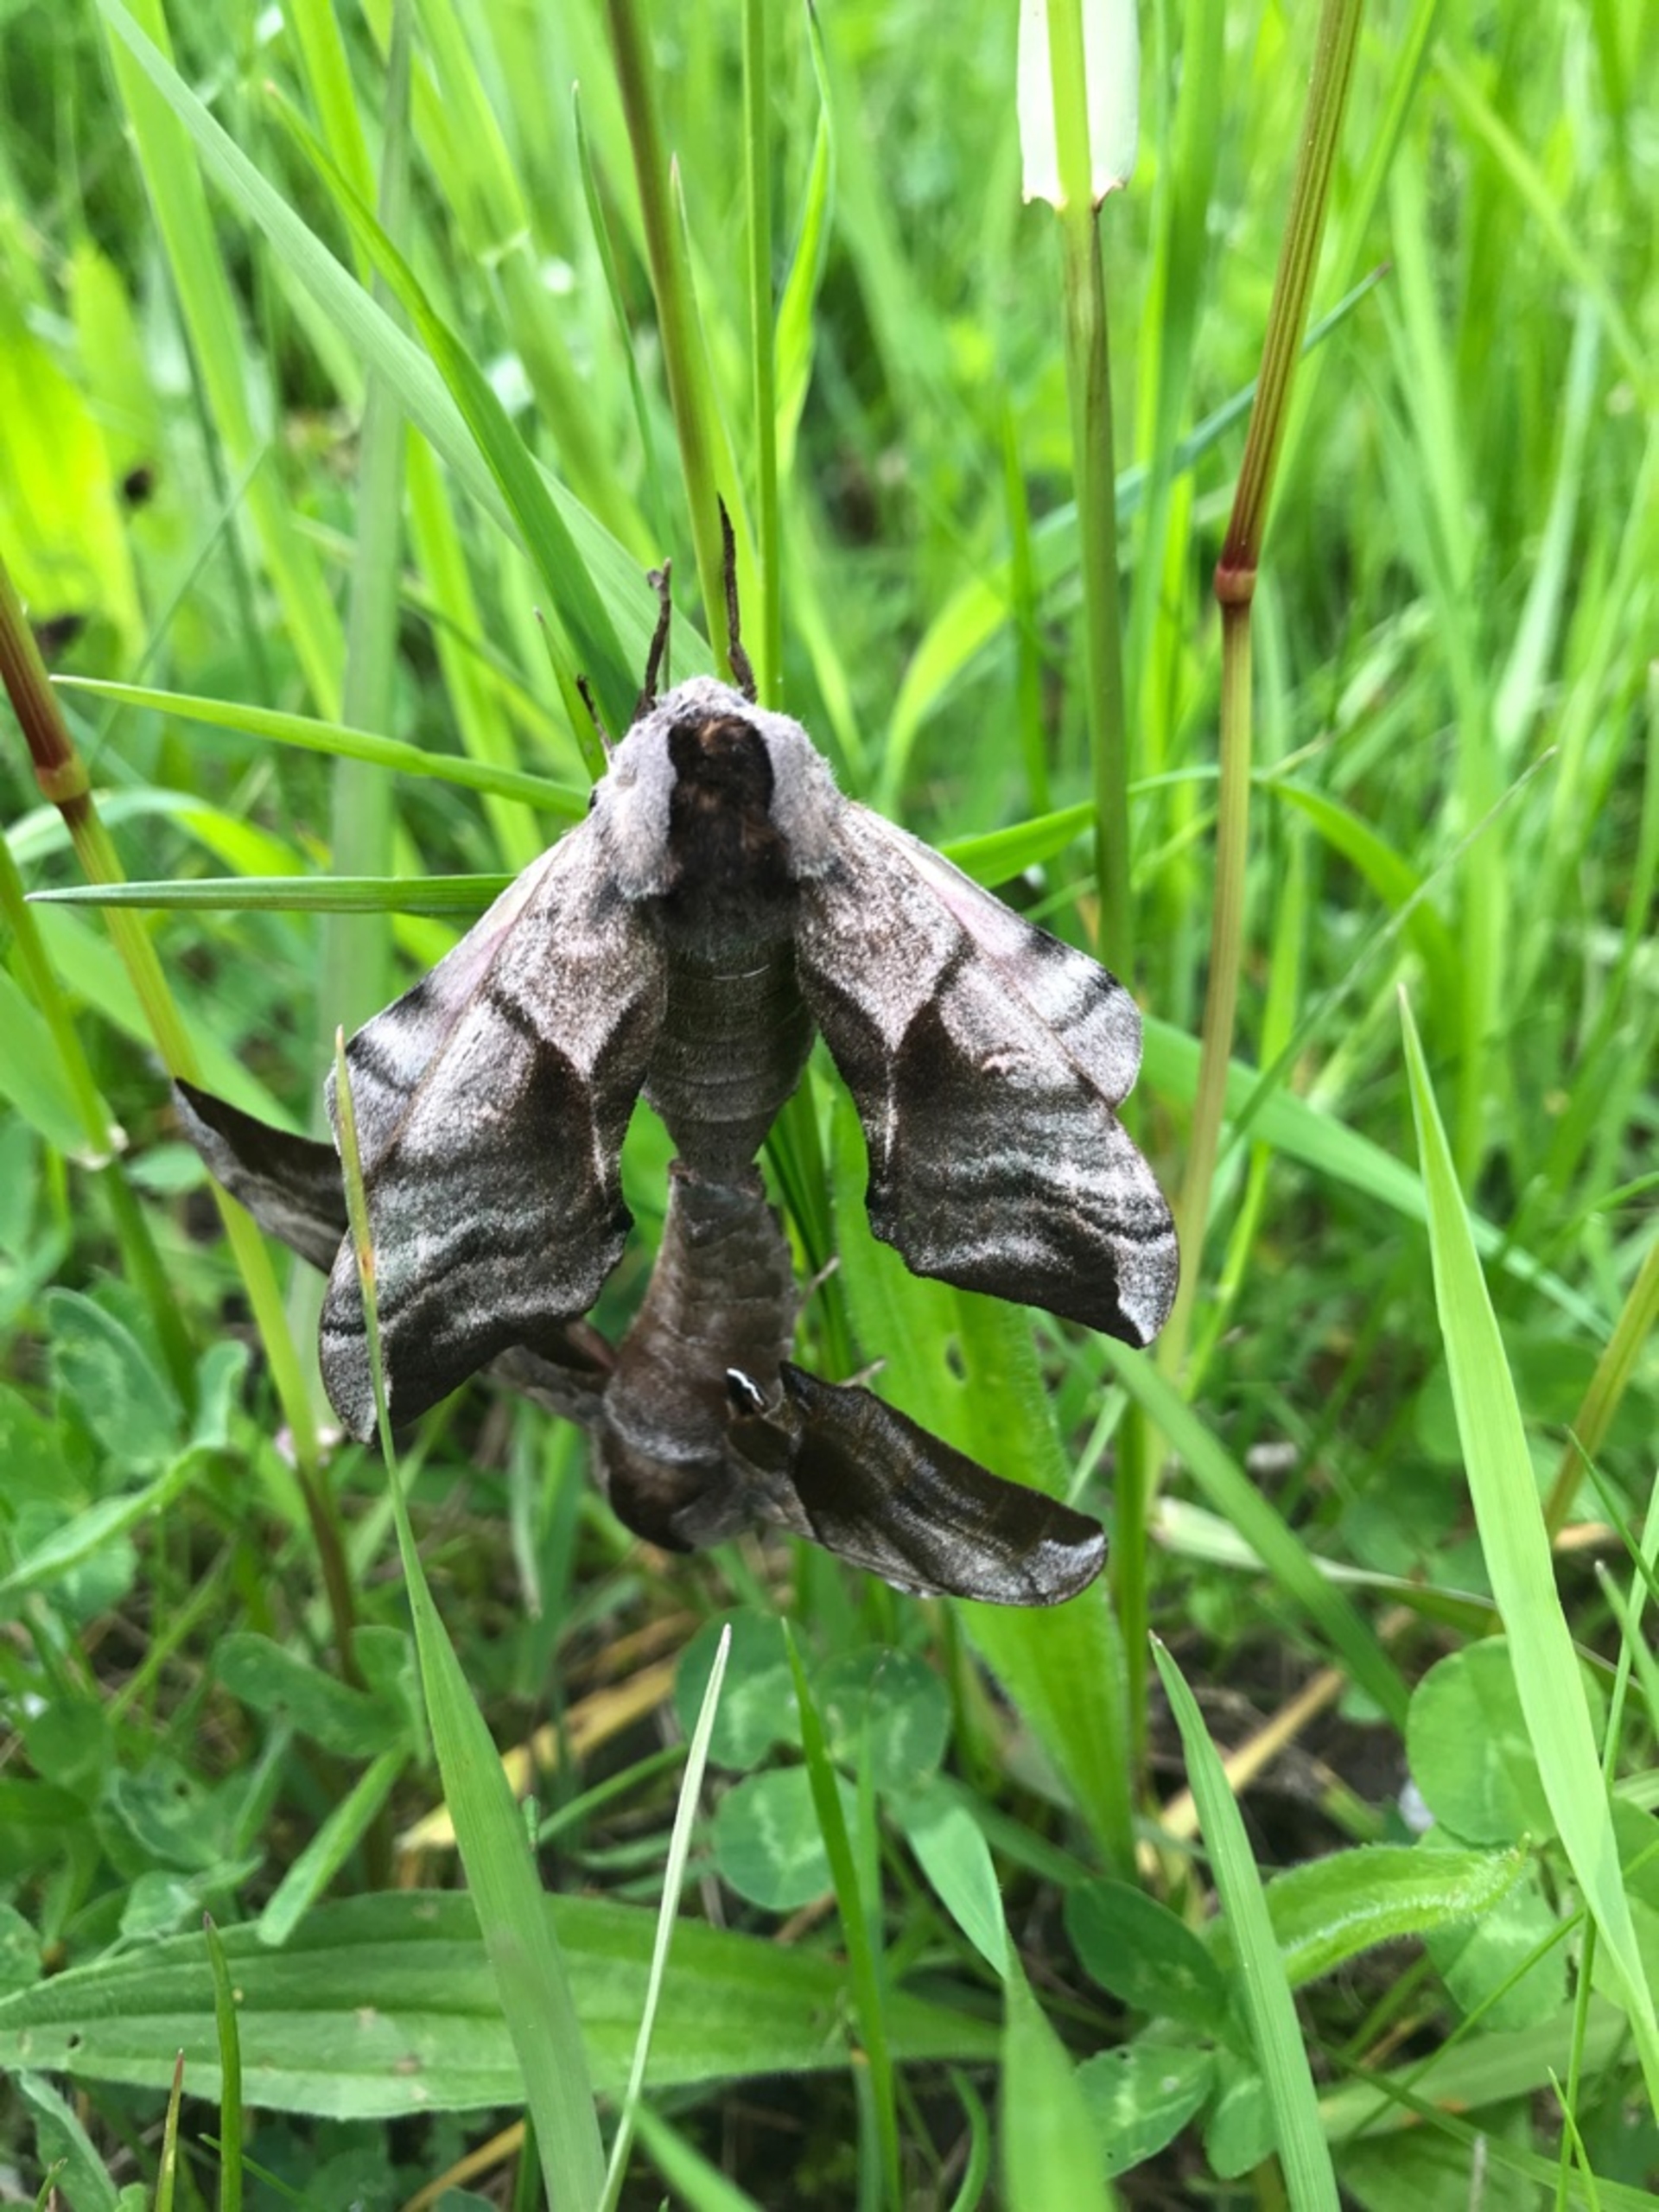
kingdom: Animalia
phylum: Arthropoda
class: Insecta
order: Lepidoptera
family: Sphingidae
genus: Smerinthus
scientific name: Smerinthus ocellata
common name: Aftenpåfugleøje
